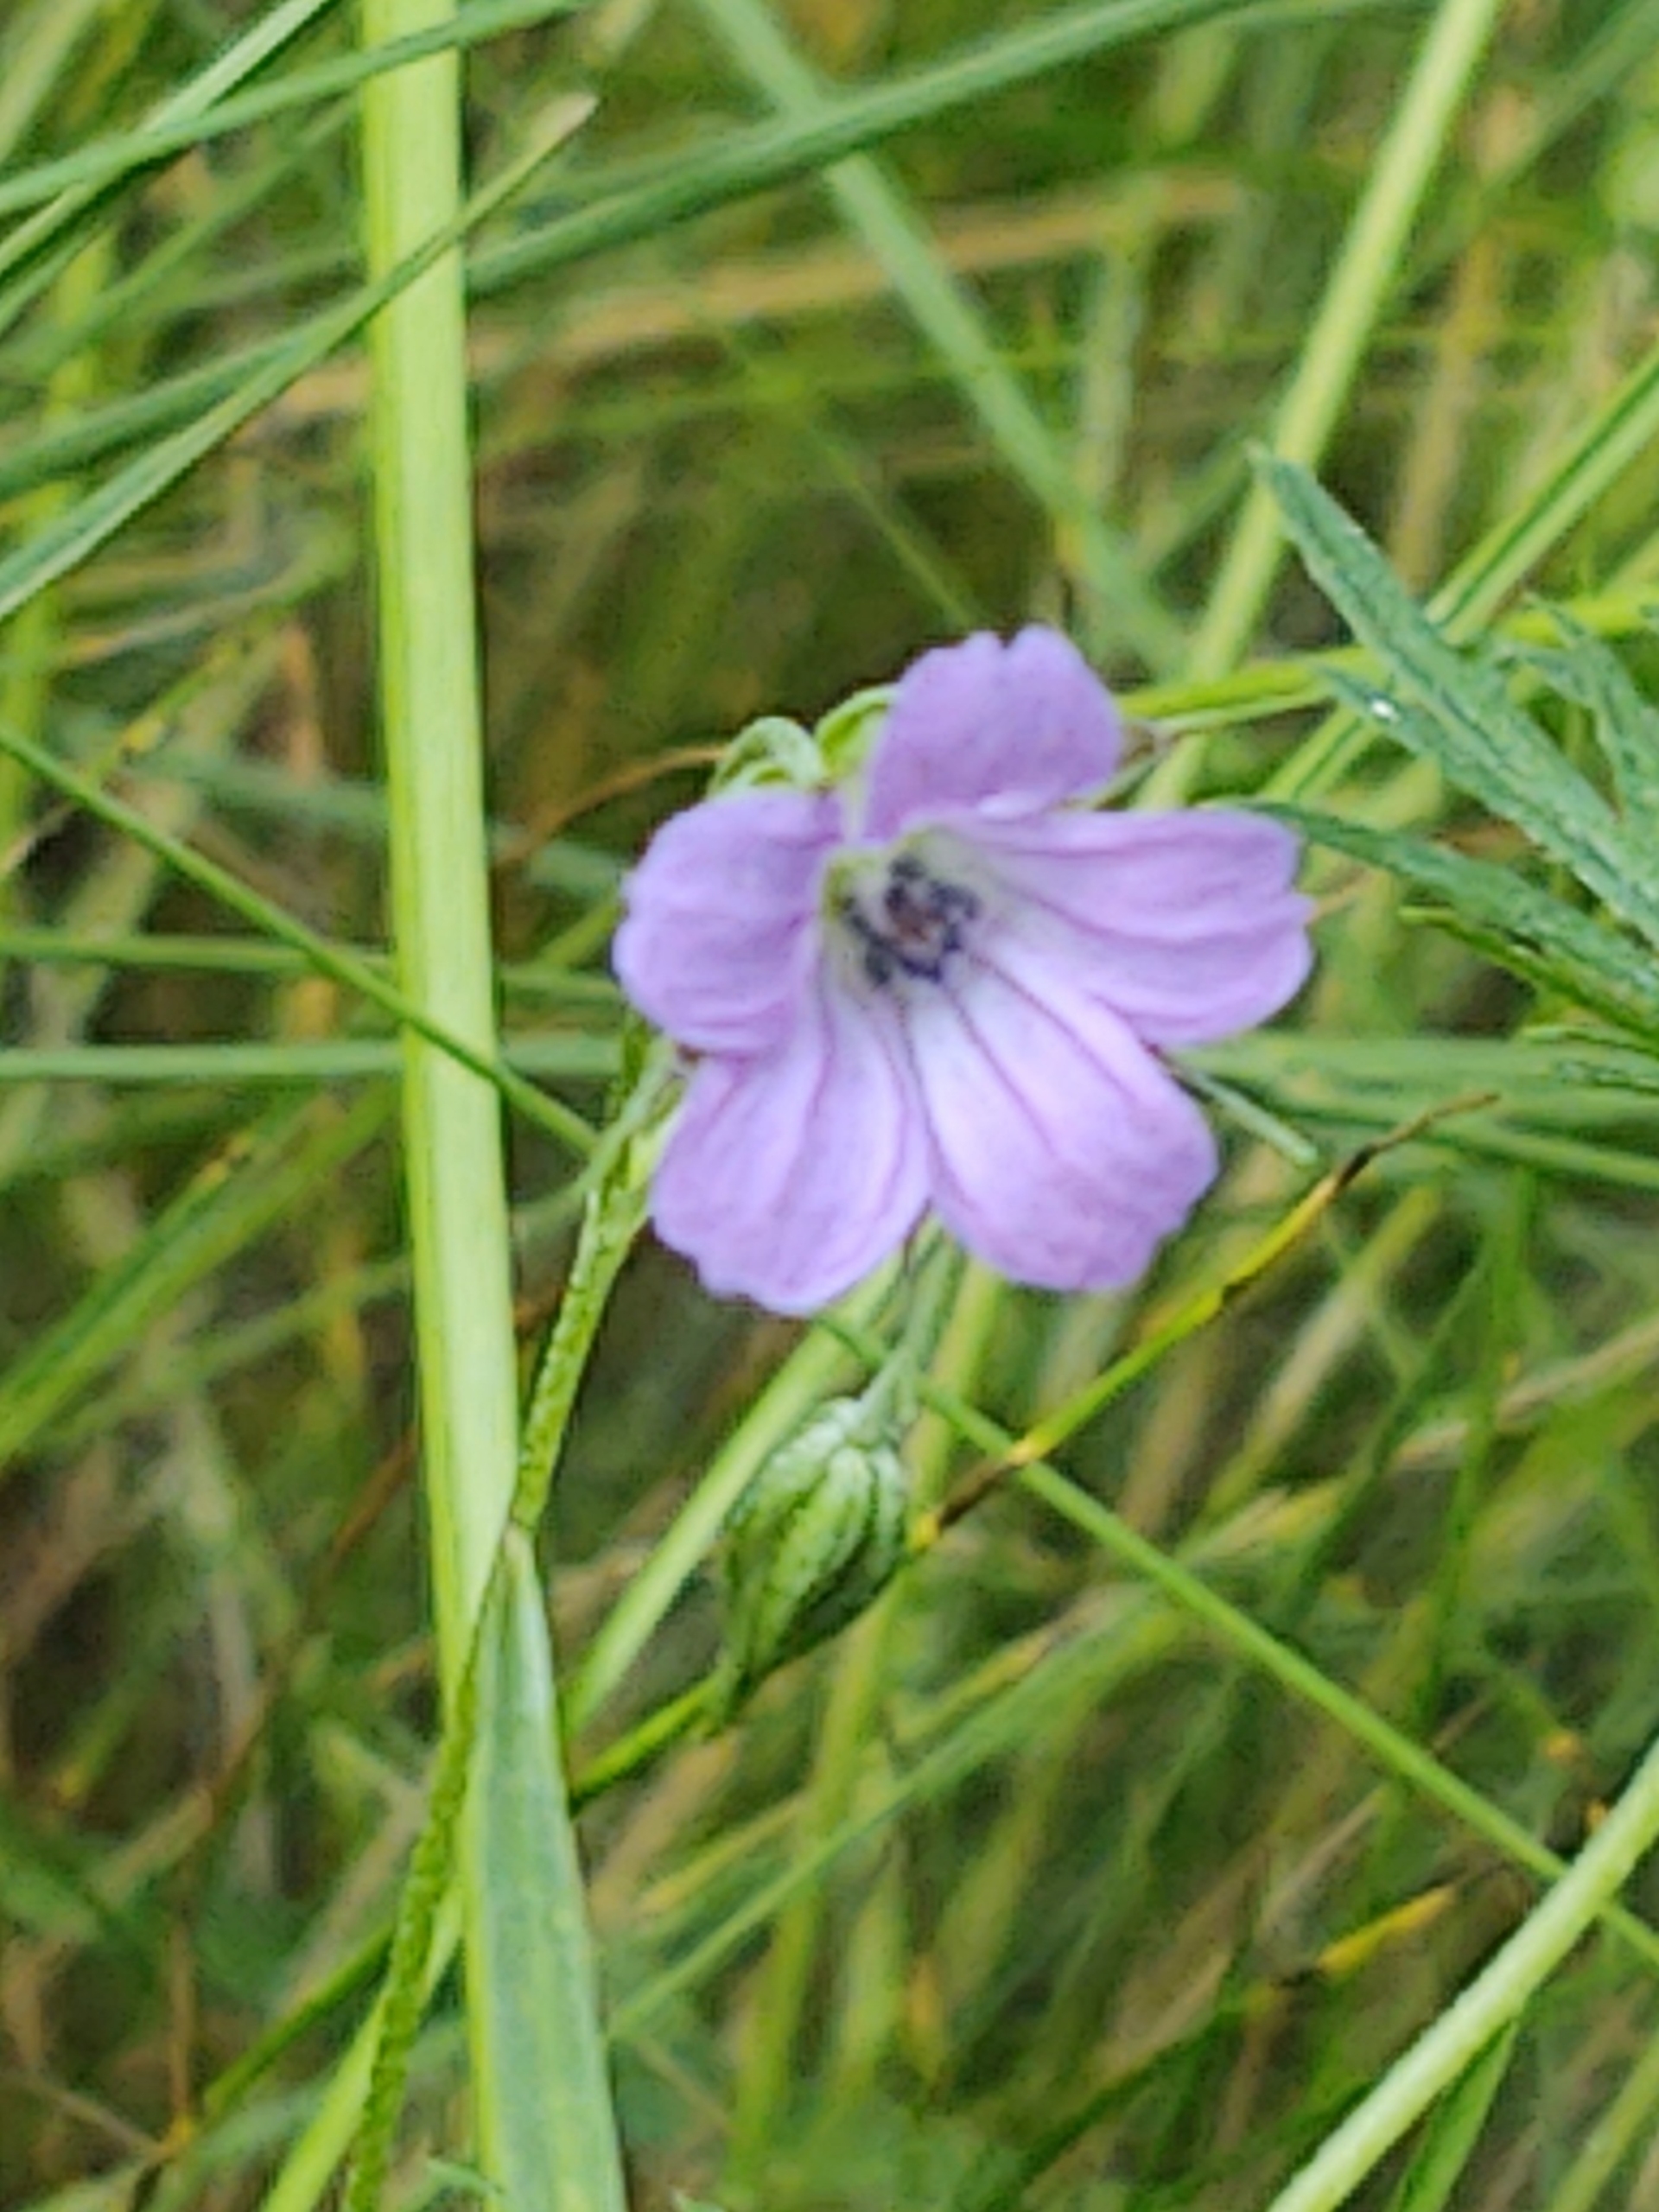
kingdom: Plantae
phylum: Tracheophyta
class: Magnoliopsida
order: Geraniales
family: Geraniaceae
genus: Geranium
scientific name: Geranium columbinum
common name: Storbægret storkenæb
